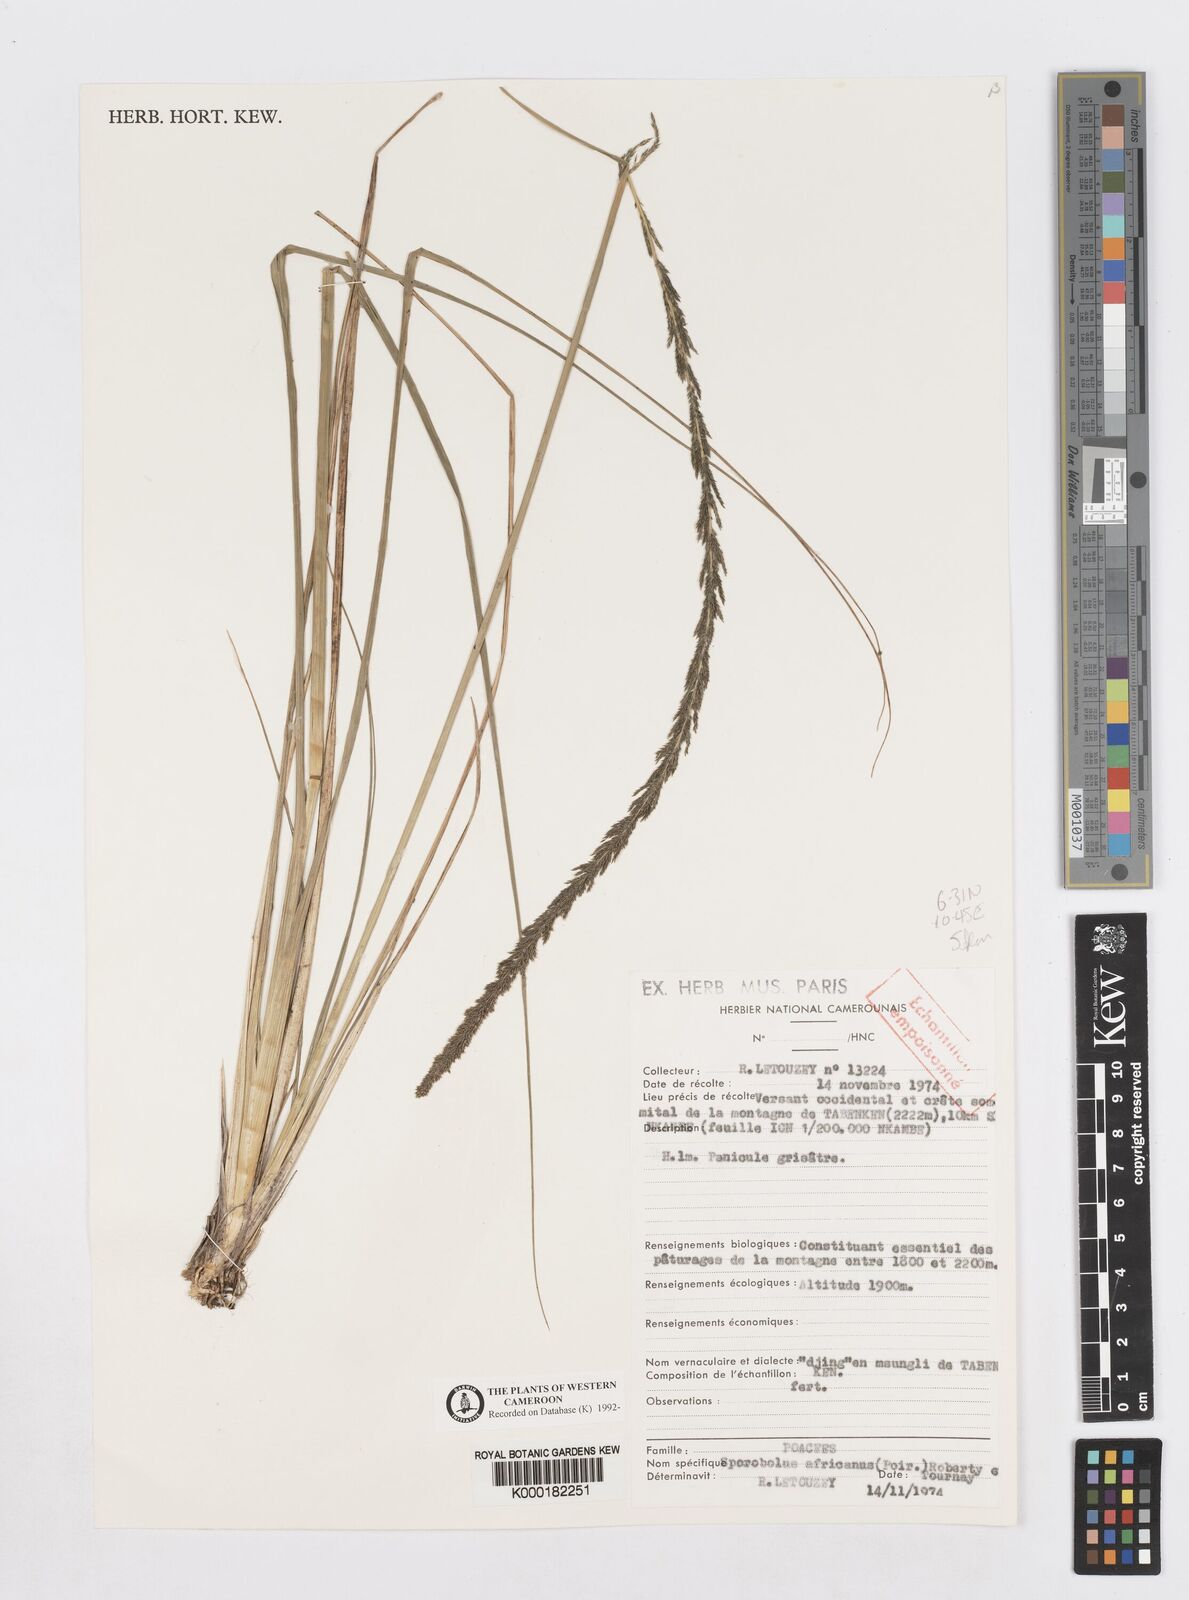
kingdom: Plantae
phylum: Tracheophyta
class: Liliopsida
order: Poales
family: Poaceae
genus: Sporobolus
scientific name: Sporobolus africanus
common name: African dropseed
